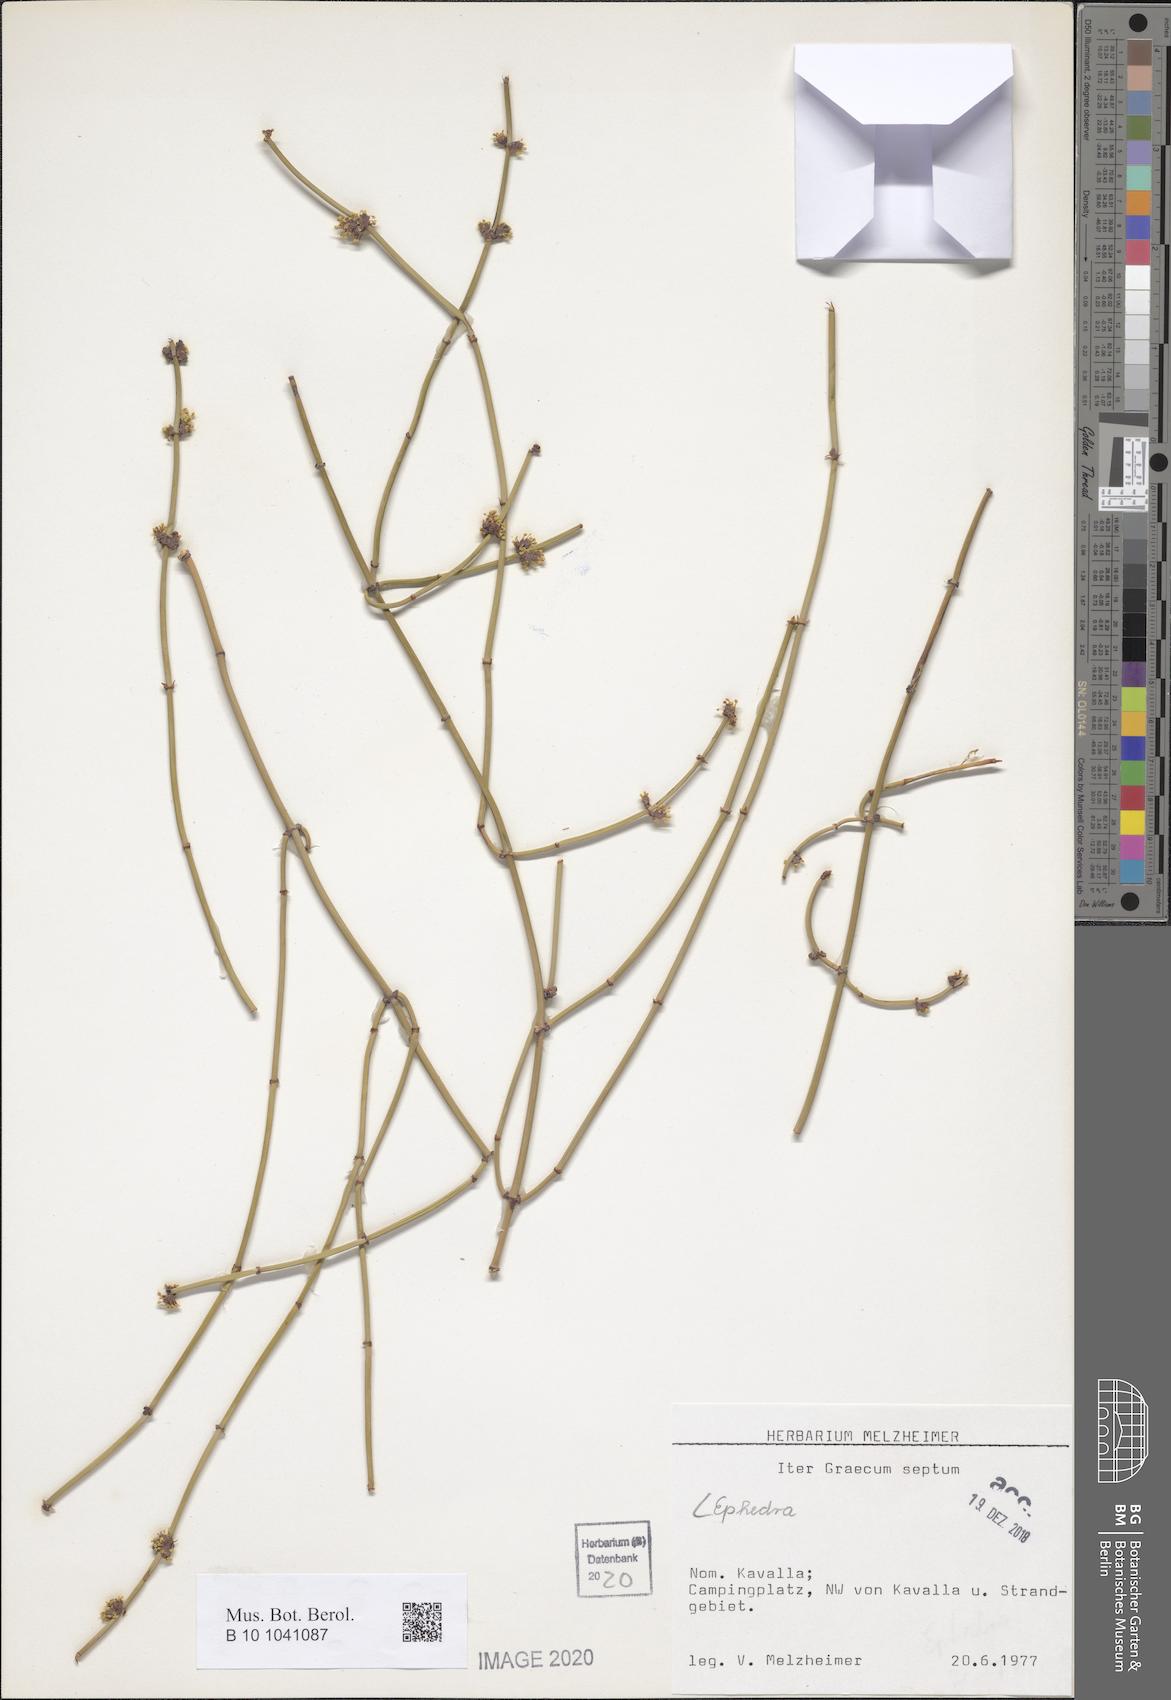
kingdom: Plantae
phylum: Tracheophyta
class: Gnetopsida
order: Ephedrales
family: Ephedraceae
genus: Ephedra
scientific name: Ephedra
